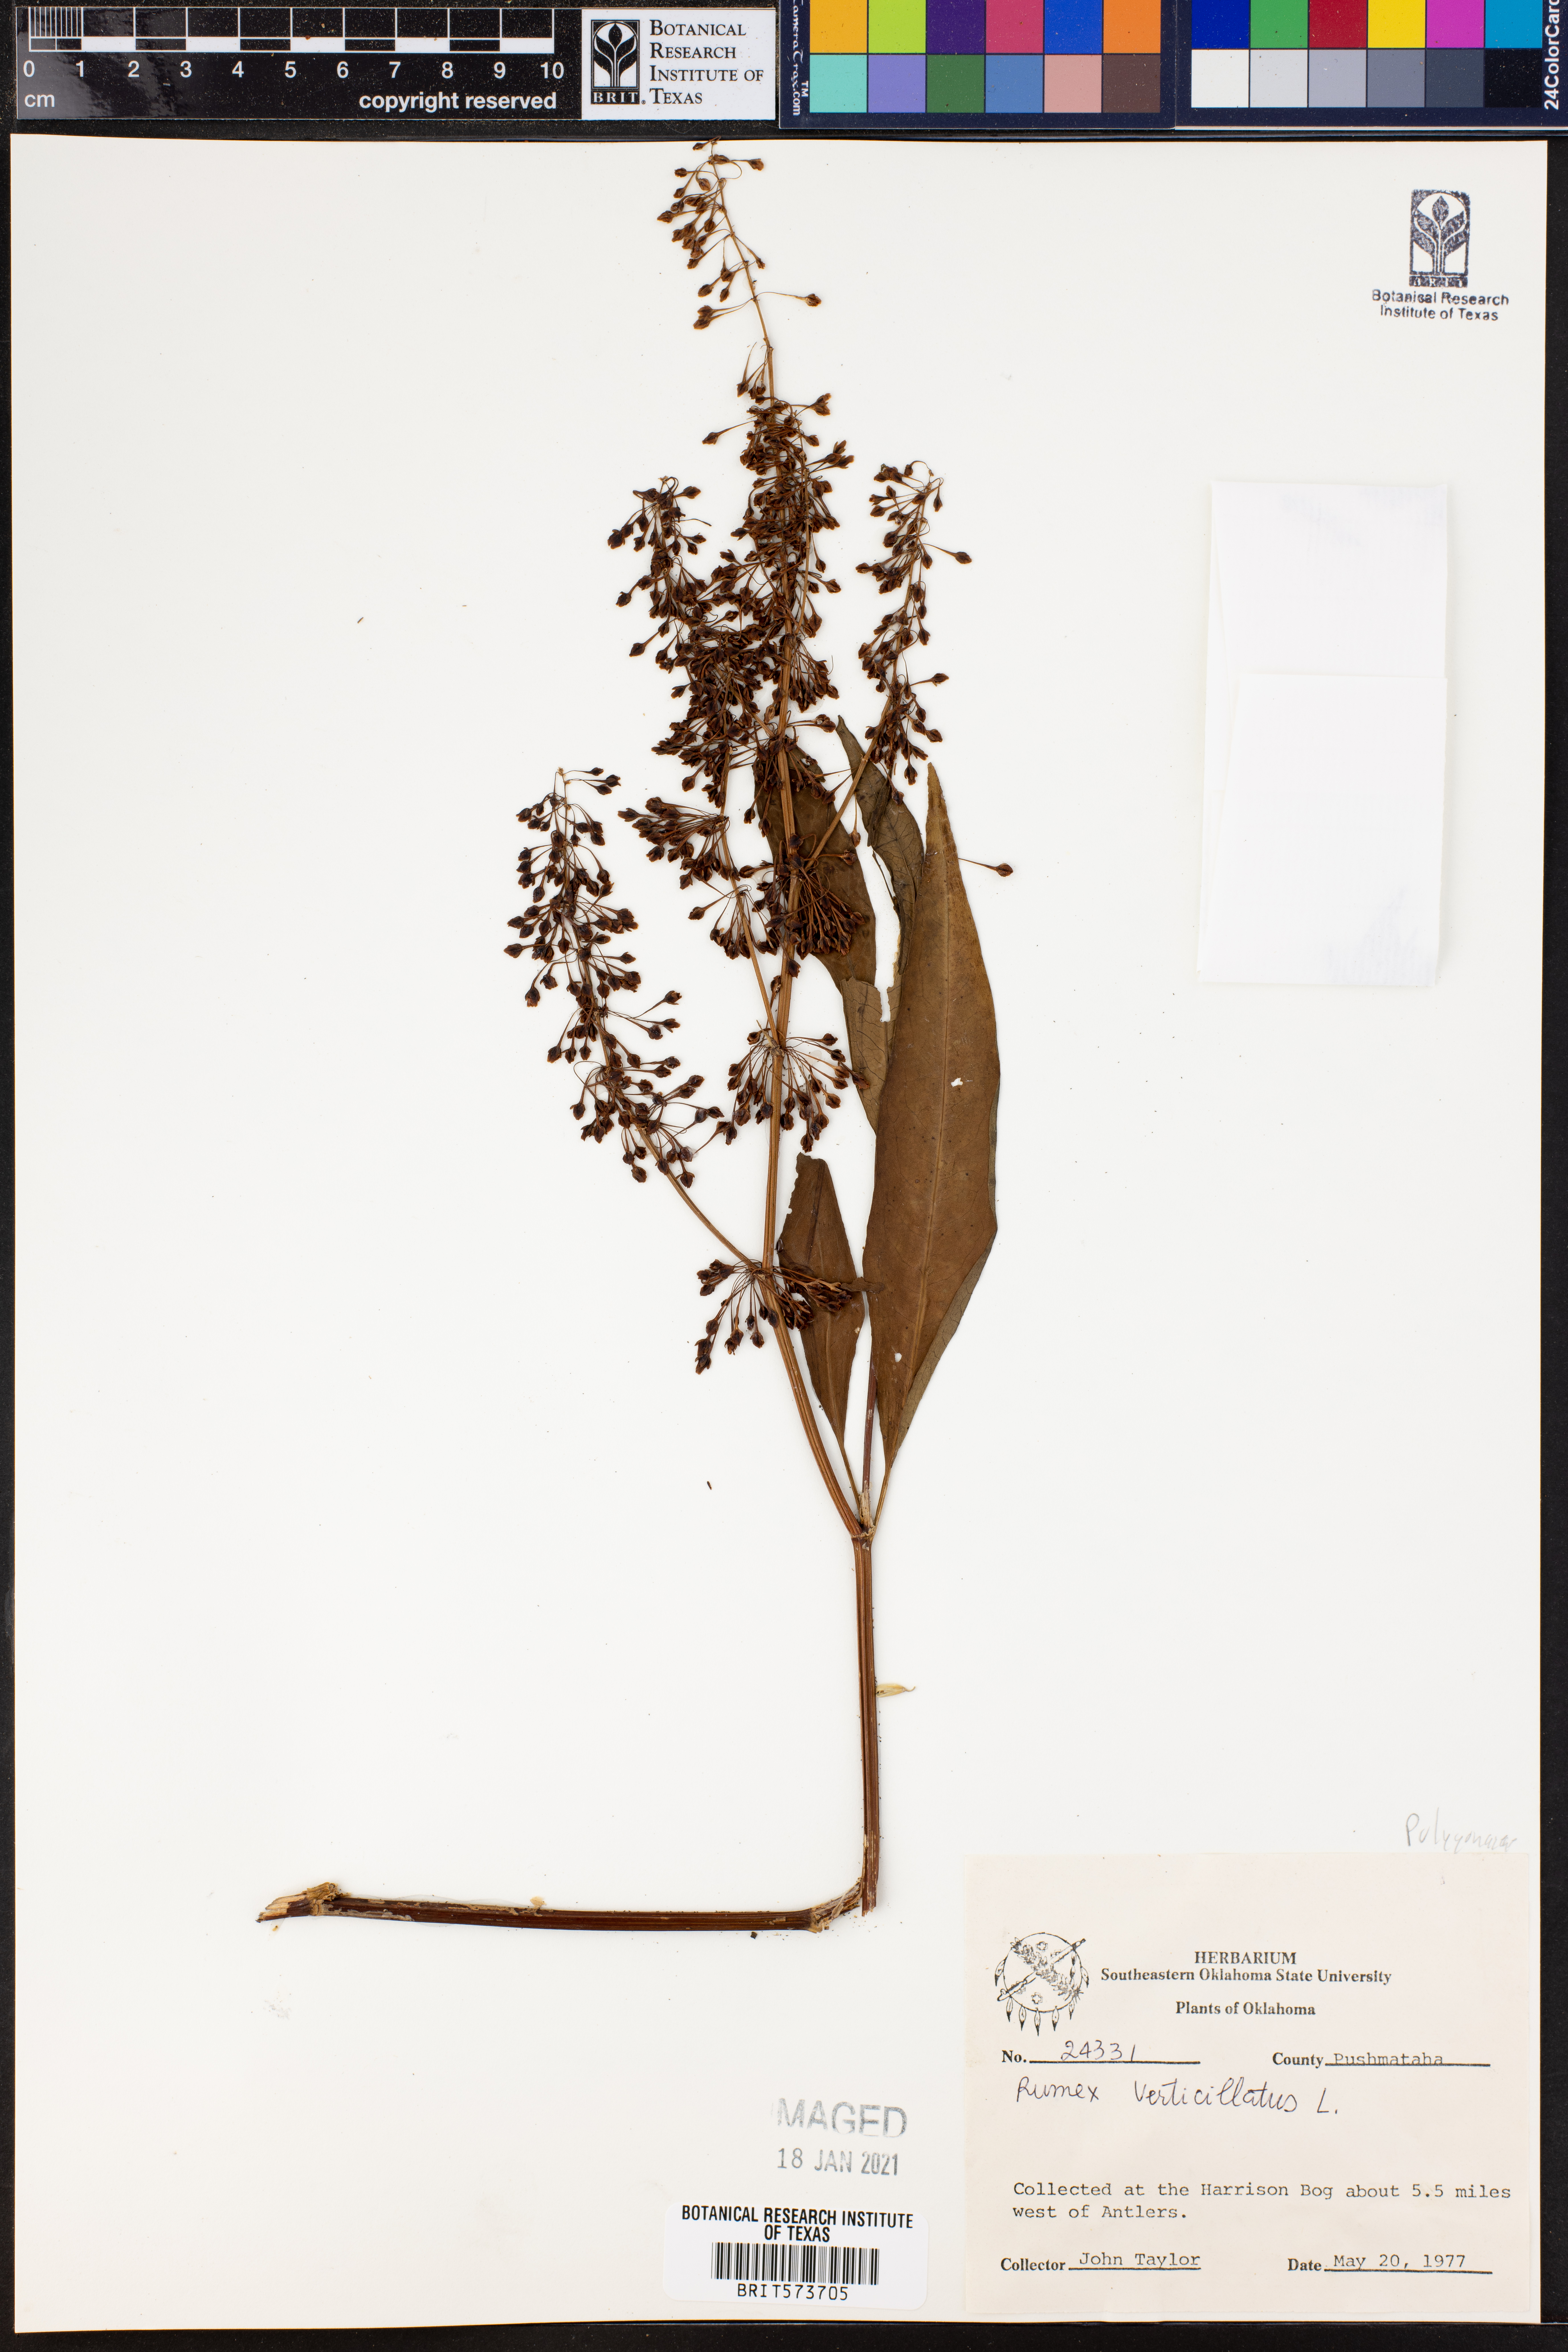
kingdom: Plantae
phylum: Tracheophyta
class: Magnoliopsida
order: Caryophyllales
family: Polygonaceae
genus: Rumex
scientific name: Rumex verticillatus
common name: Swamp dock
